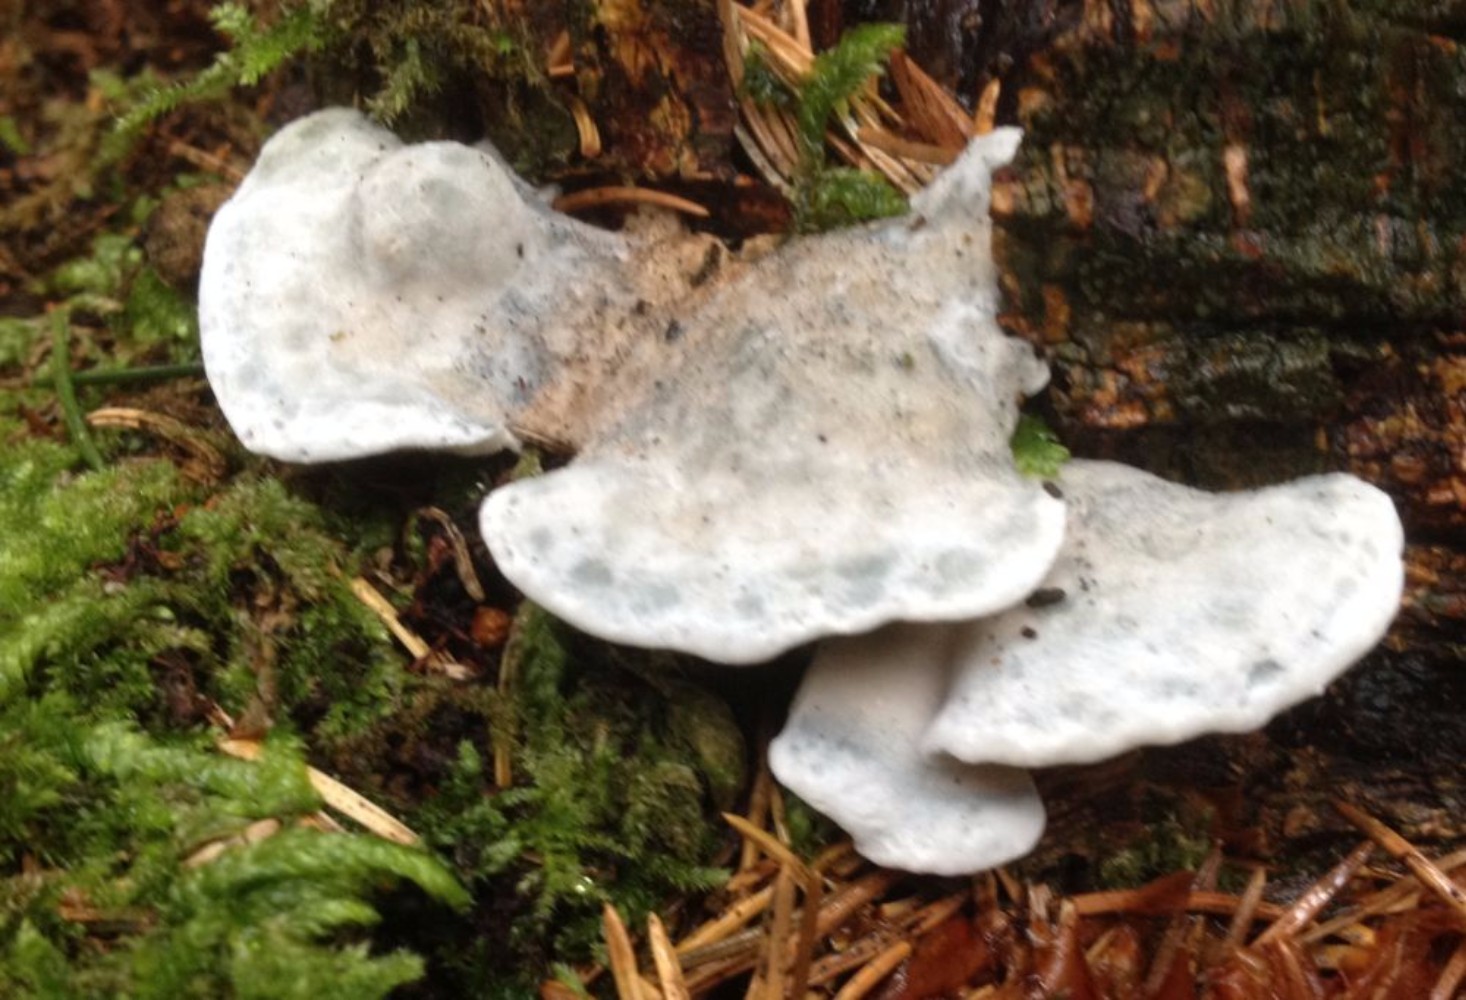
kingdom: Fungi
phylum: Basidiomycota
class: Agaricomycetes
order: Polyporales
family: Polyporaceae
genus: Cyanosporus
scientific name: Cyanosporus caesius
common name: blålig kødporesvamp
